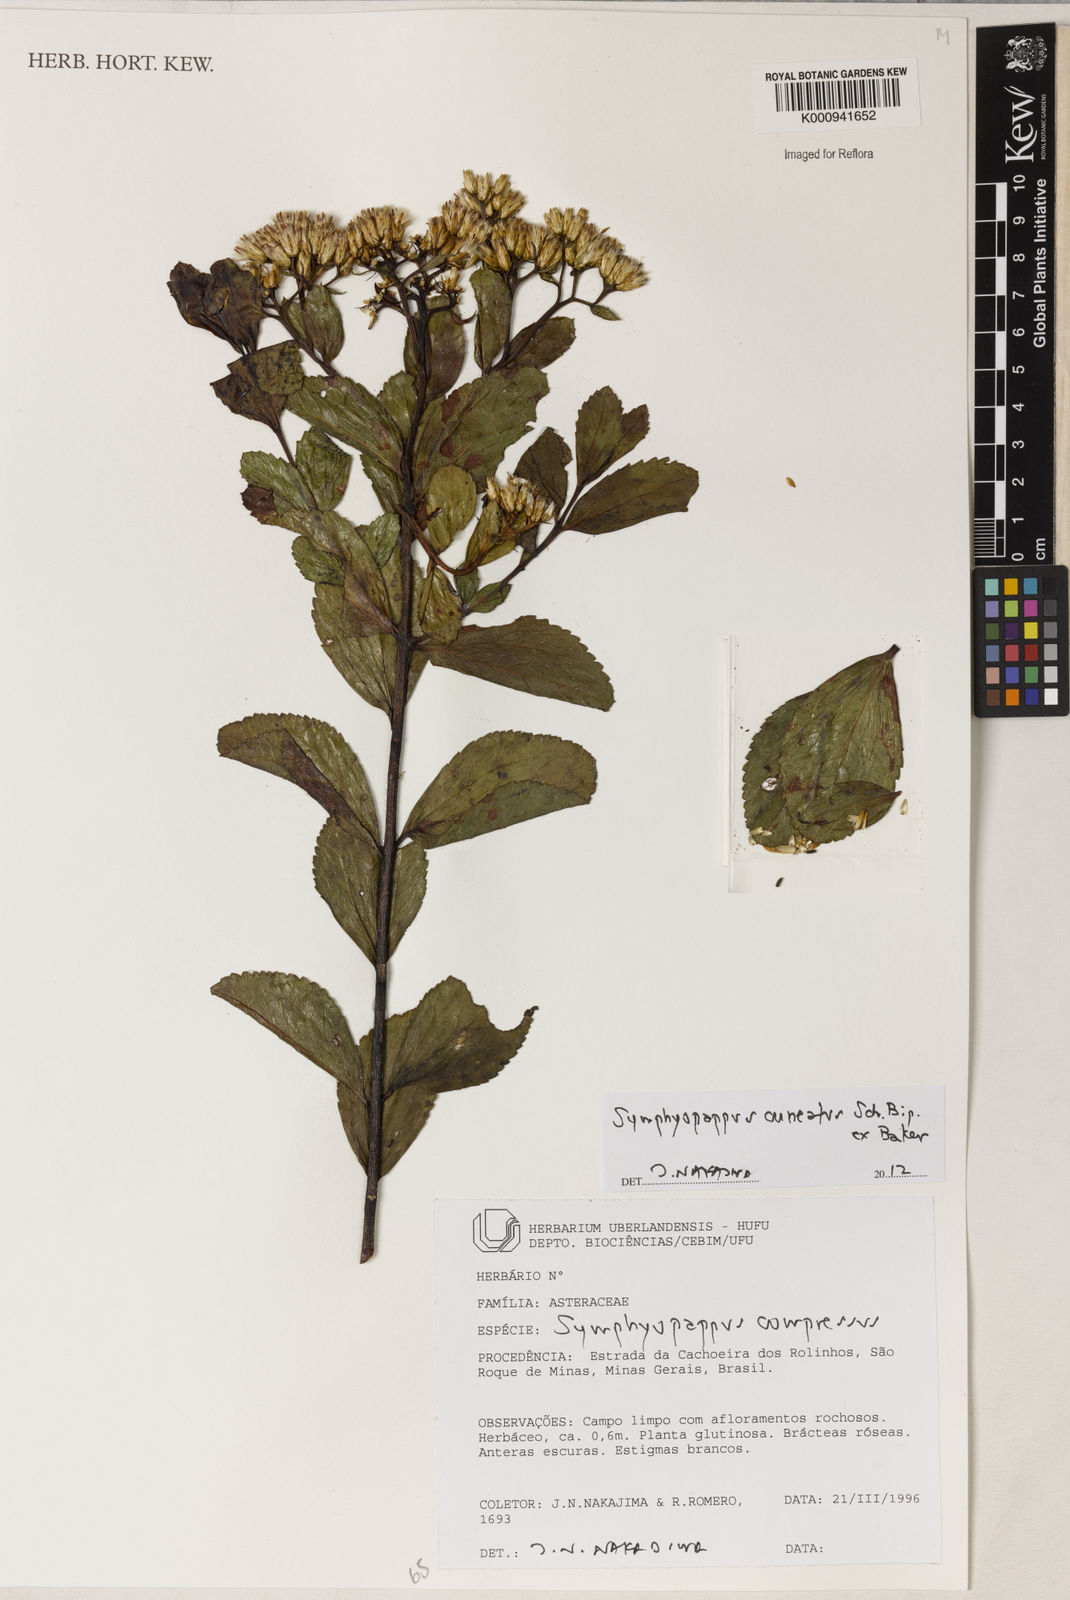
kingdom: Plantae
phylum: Tracheophyta
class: Magnoliopsida
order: Asterales
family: Asteraceae
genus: Symphyopappus
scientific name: Symphyopappus cuneatus
